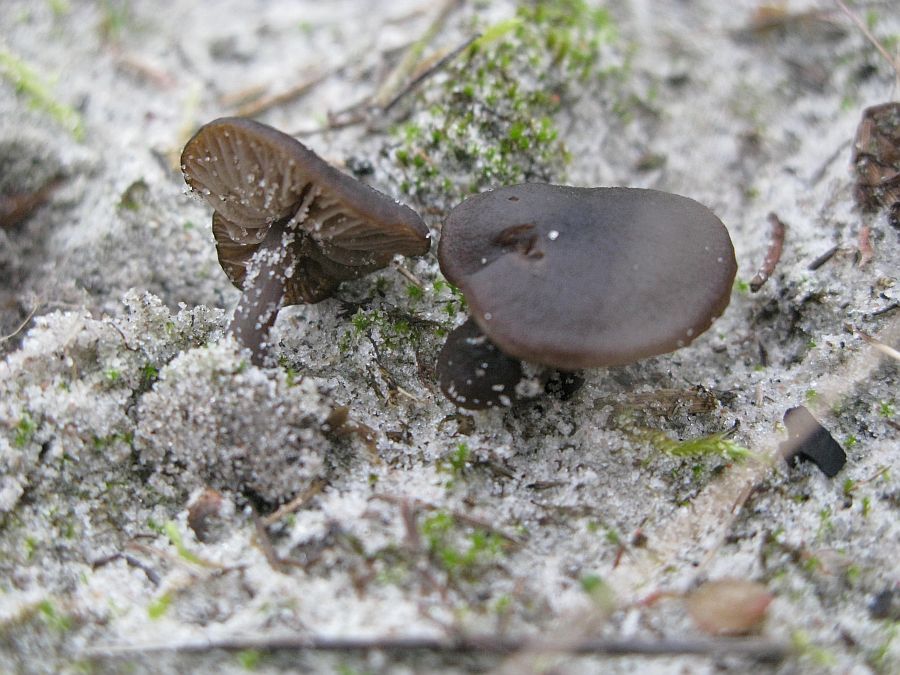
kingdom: Fungi
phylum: Basidiomycota
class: Agaricomycetes
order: Agaricales
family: Entolomataceae
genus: Entoloma
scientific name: Entoloma vindobonense
